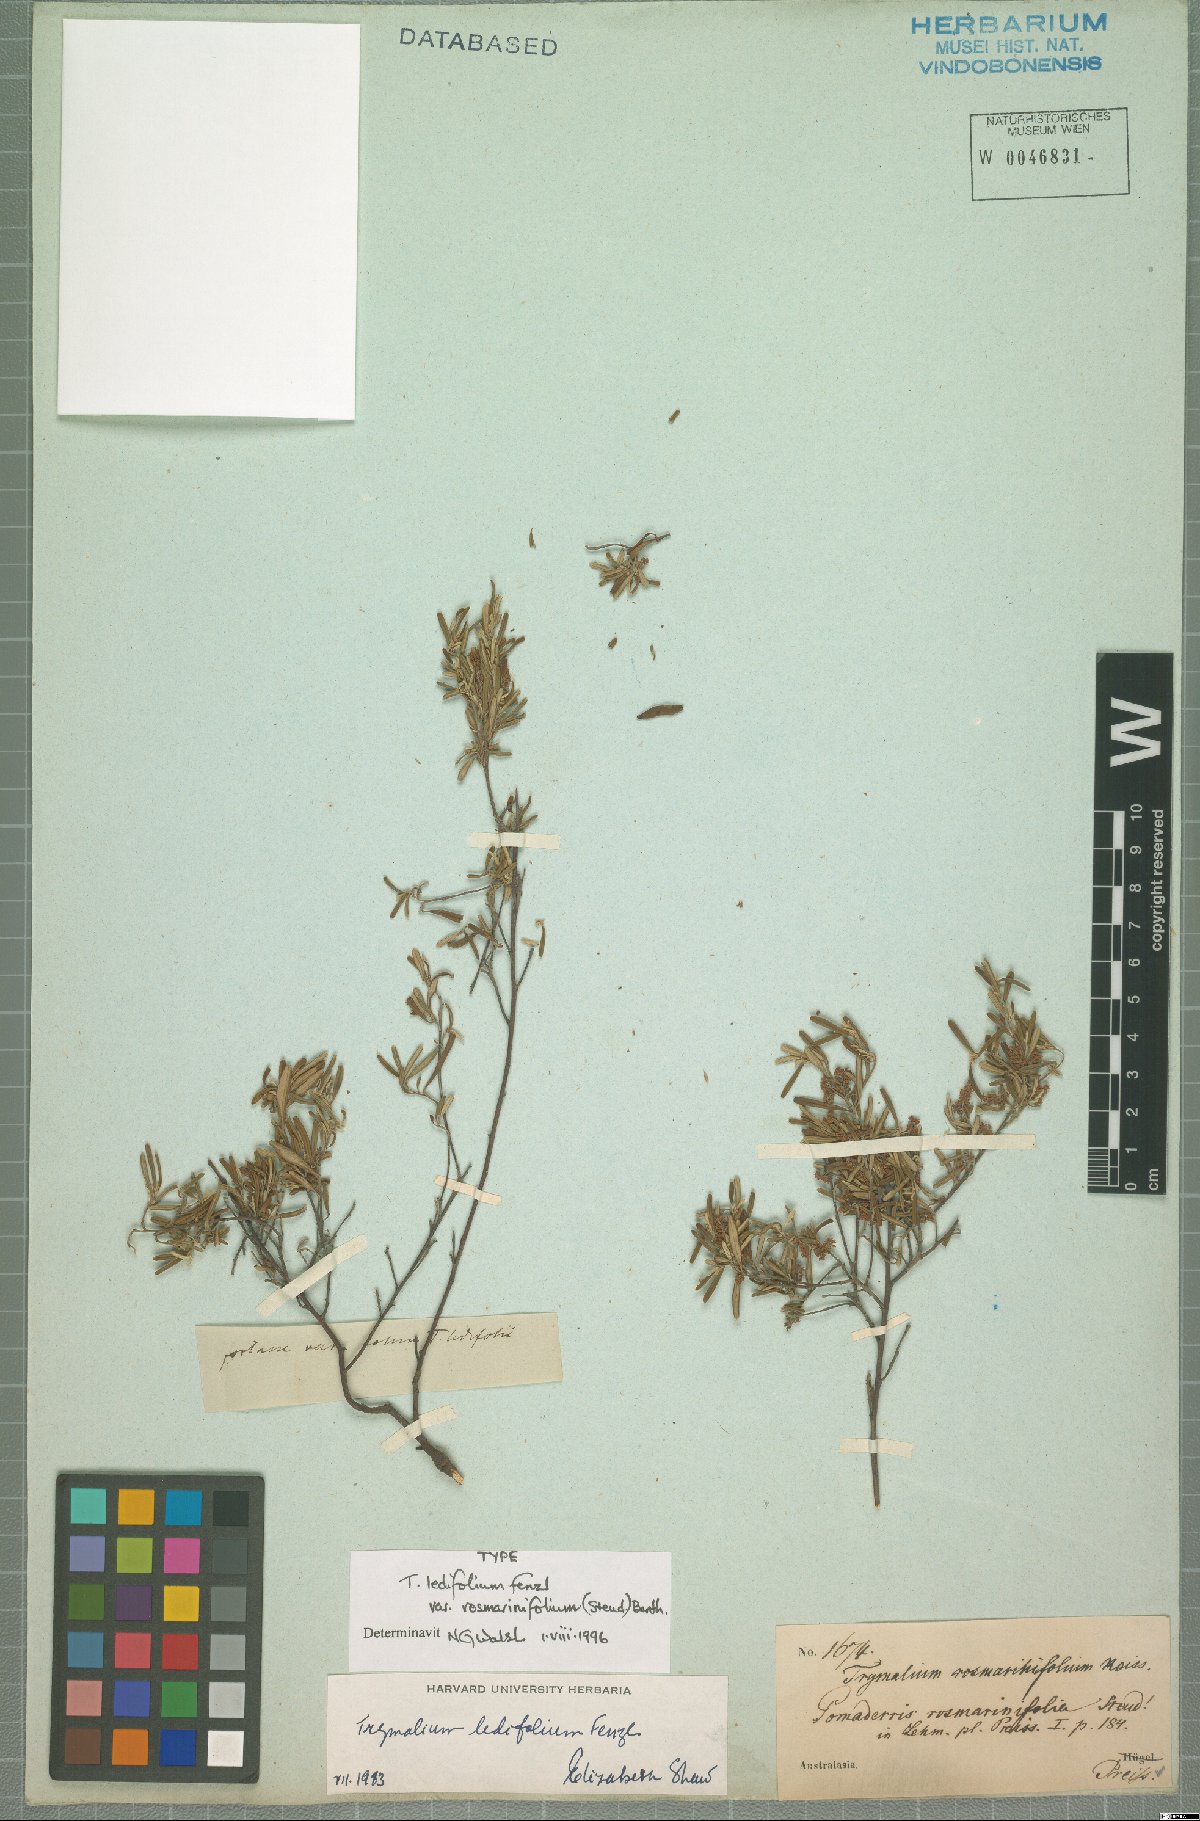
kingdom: Plantae
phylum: Tracheophyta
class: Magnoliopsida
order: Rosales
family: Rhamnaceae
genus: Trymalium
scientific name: Trymalium ledifolium
